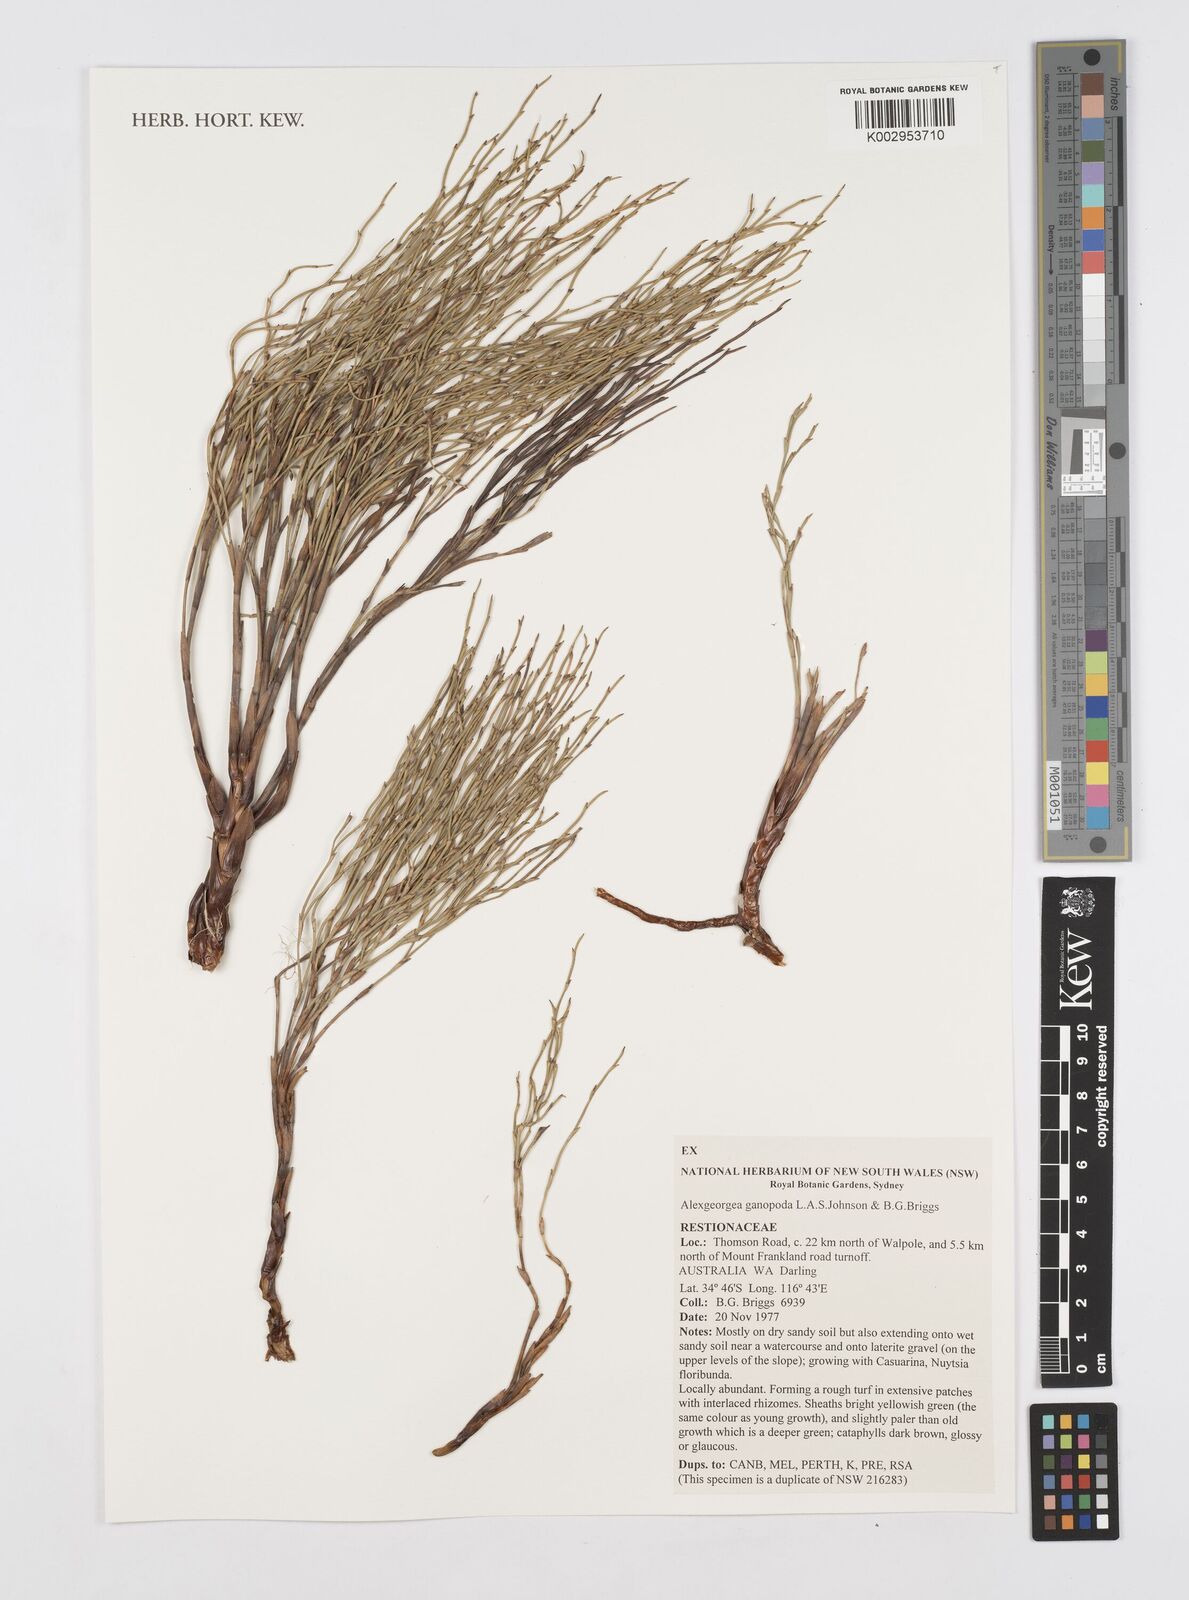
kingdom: Plantae
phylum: Tracheophyta
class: Liliopsida
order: Poales
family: Restionaceae
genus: Alexgeorgea
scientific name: Alexgeorgea ganopoda
